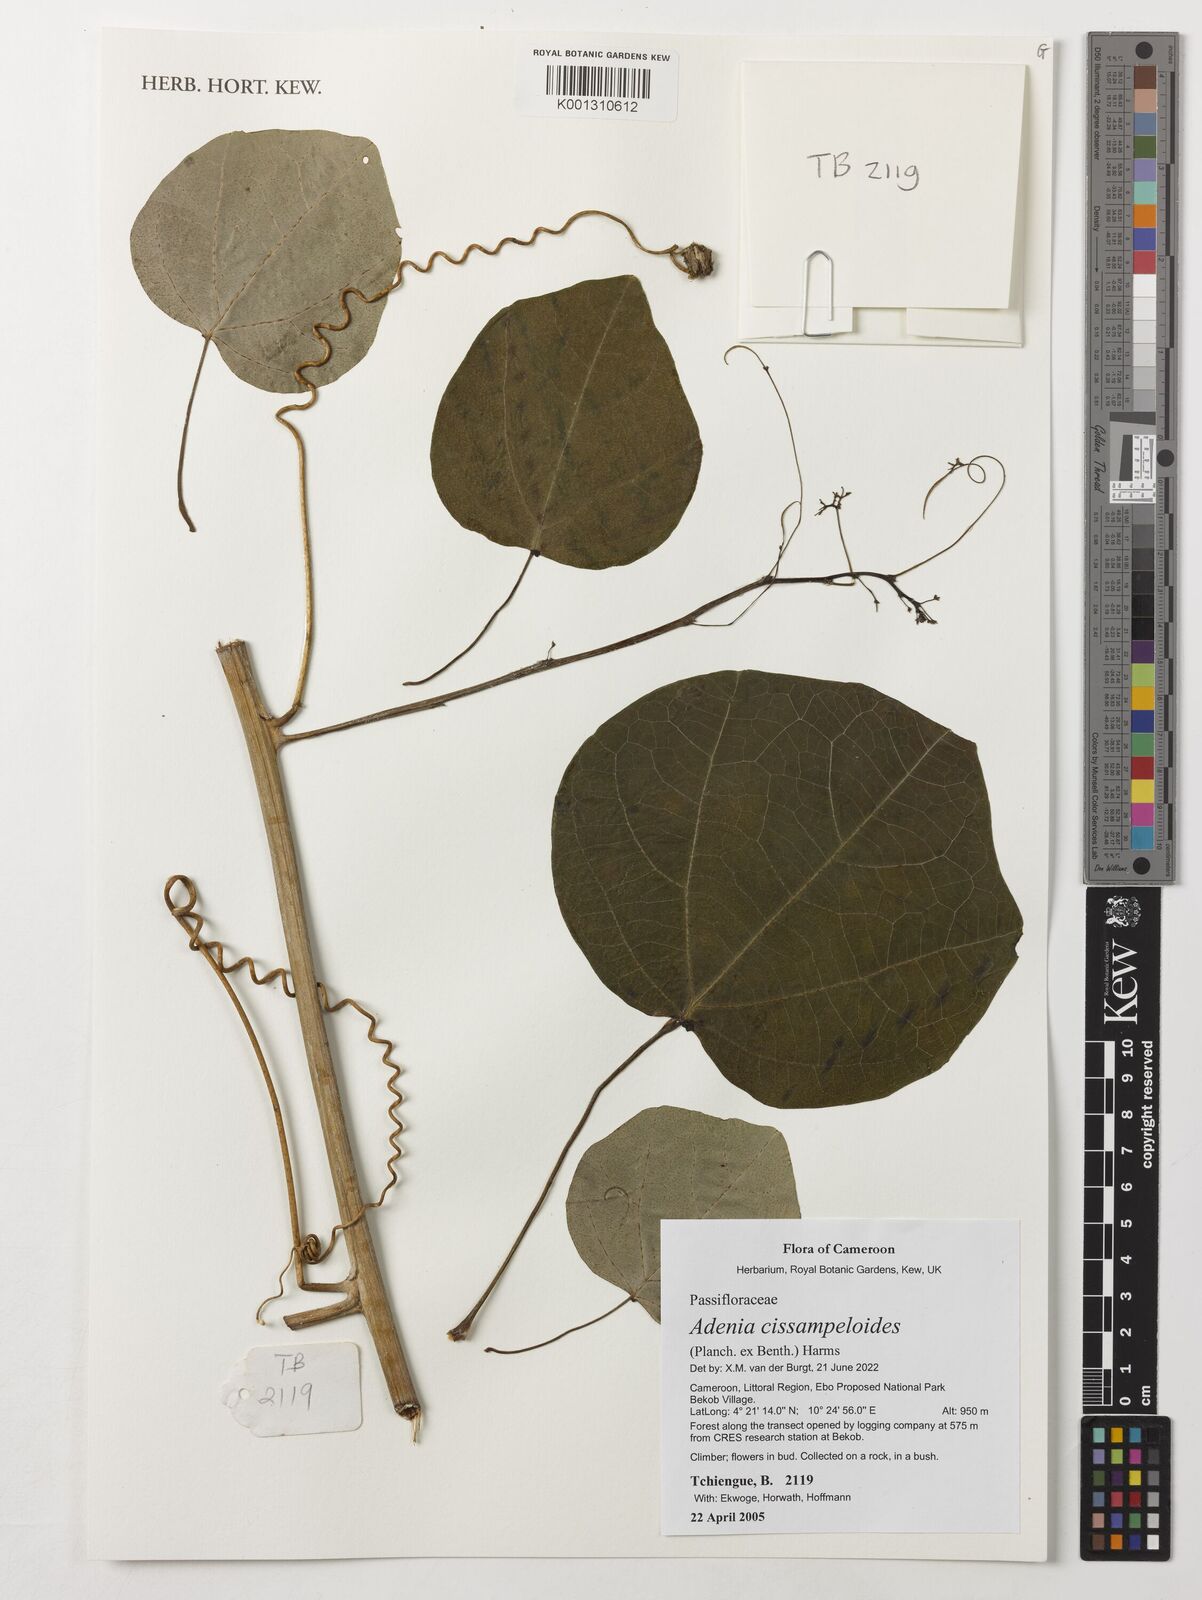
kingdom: Plantae
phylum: Tracheophyta
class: Magnoliopsida
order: Malpighiales
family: Passifloraceae
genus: Adenia
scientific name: Adenia cissampeloides
